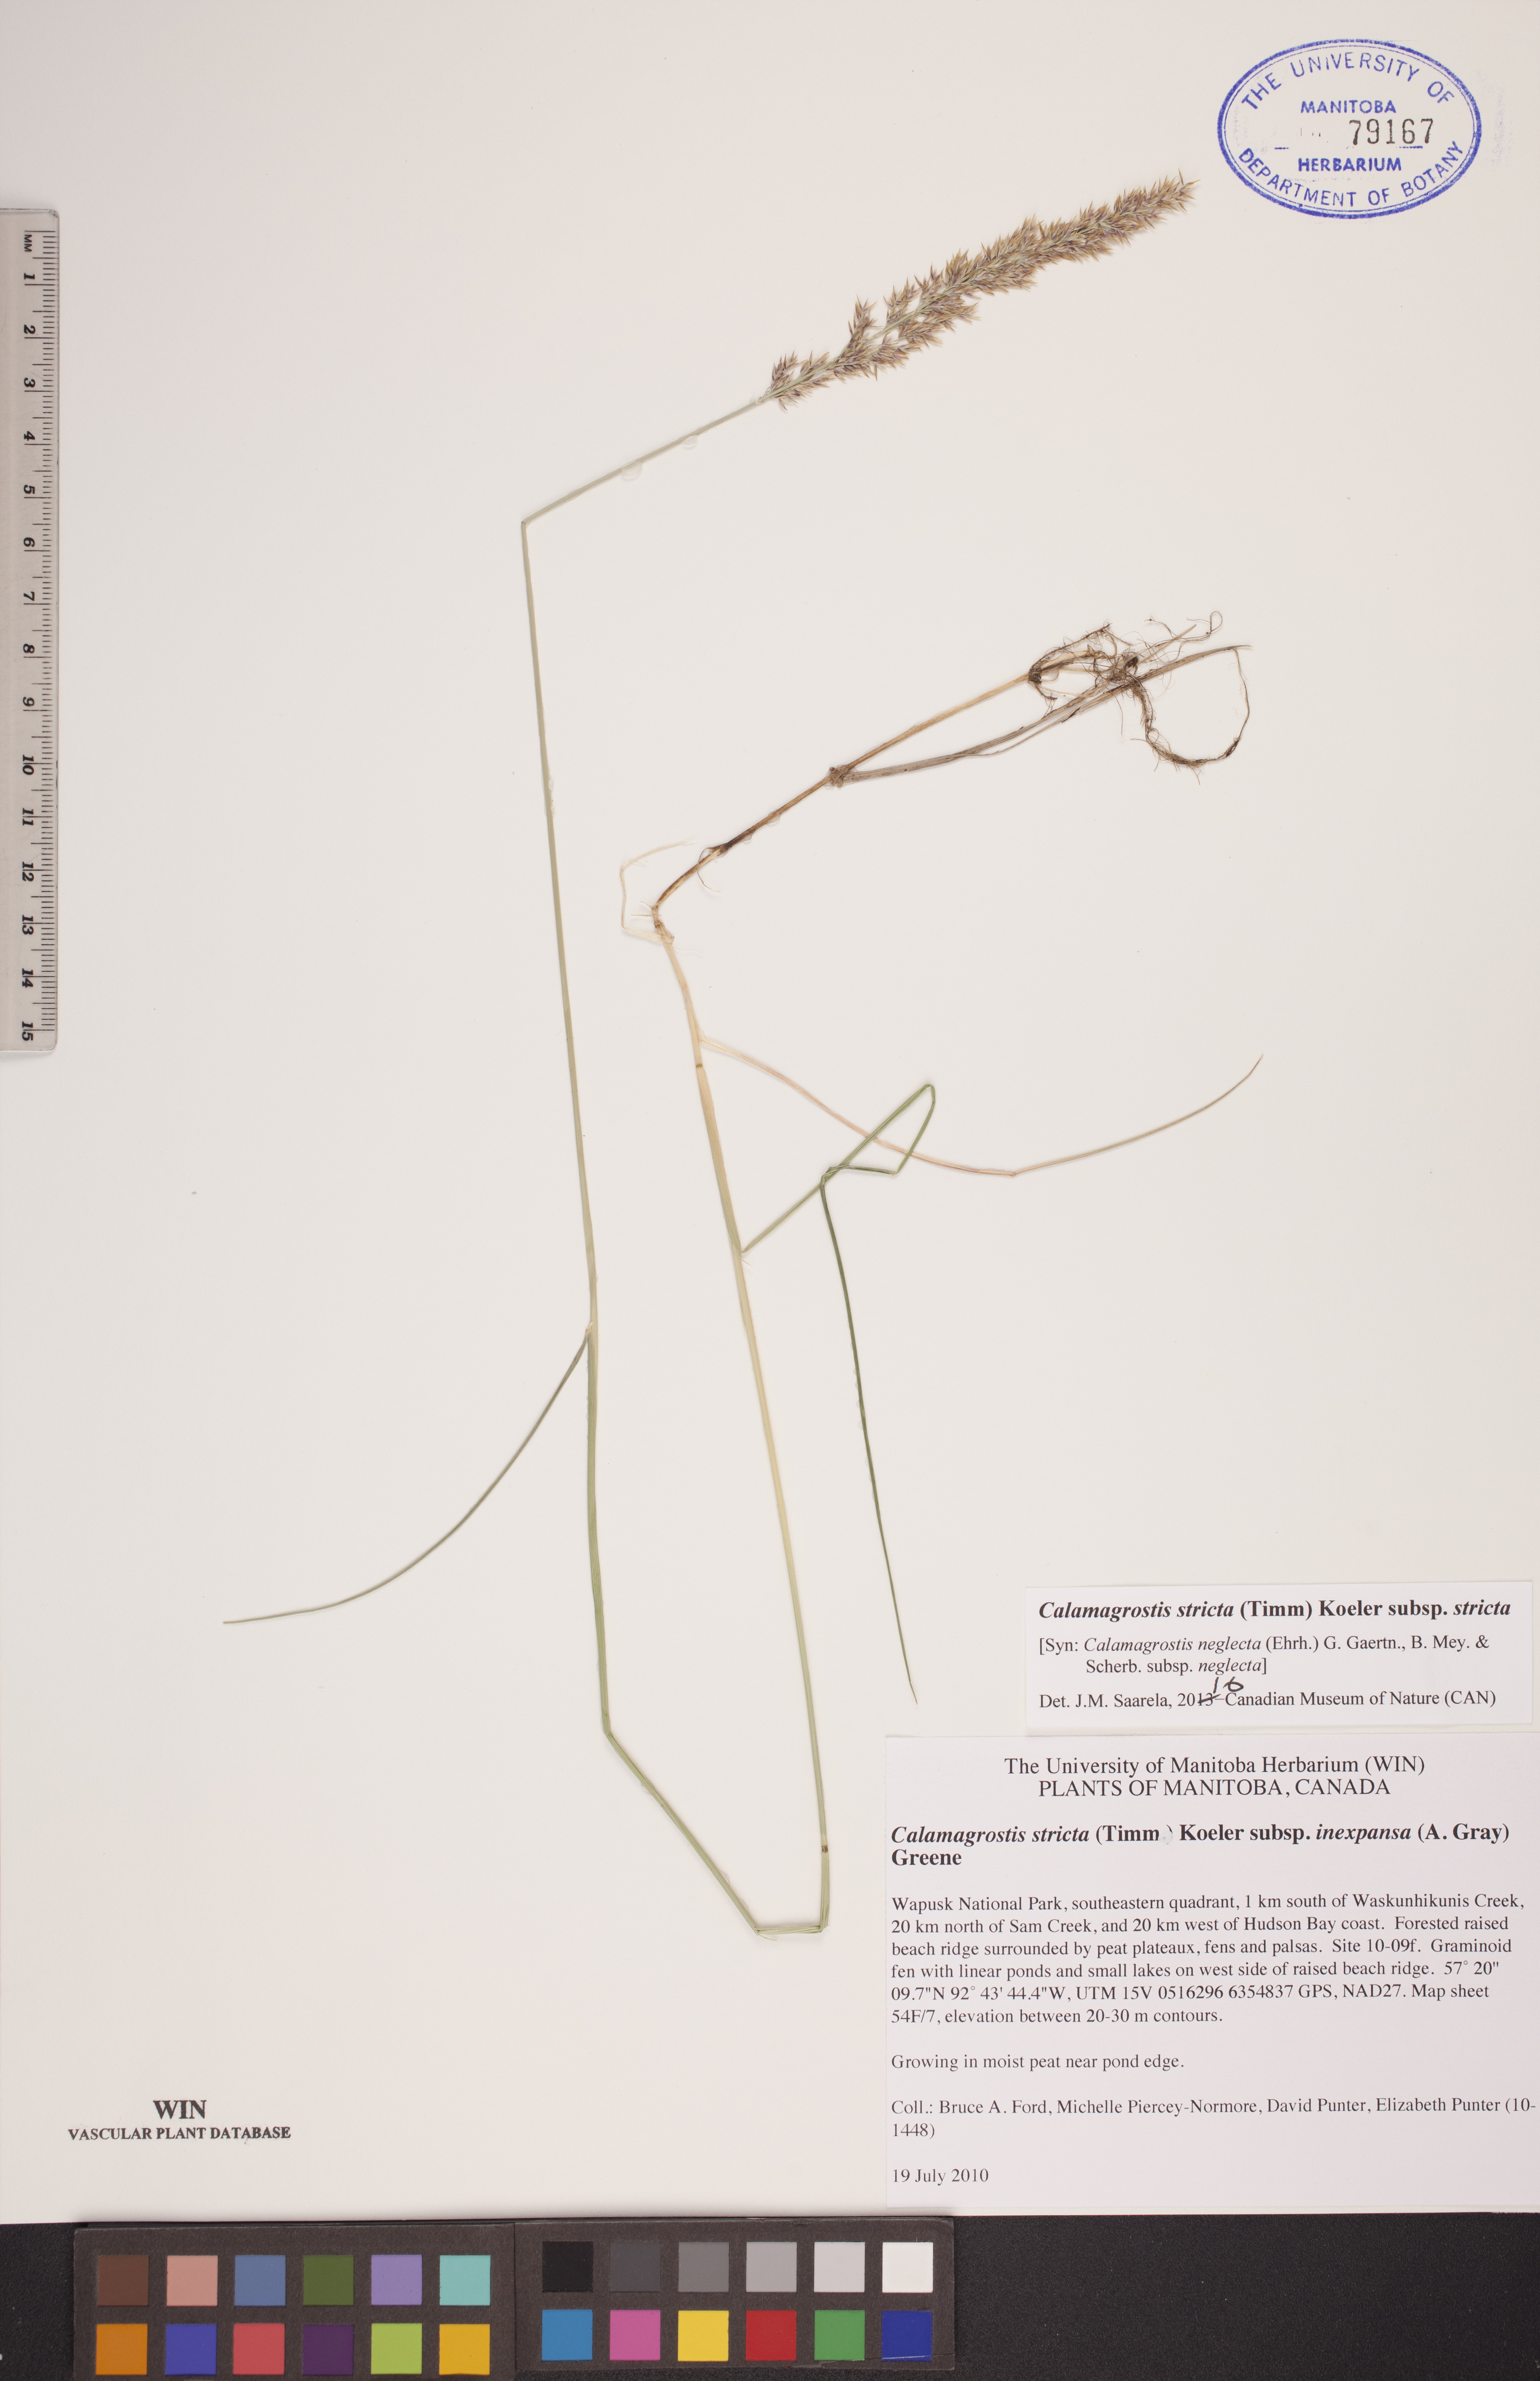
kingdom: Plantae
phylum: Tracheophyta
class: Liliopsida
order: Poales
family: Poaceae
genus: Achnatherum
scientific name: Achnatherum calamagrostis
